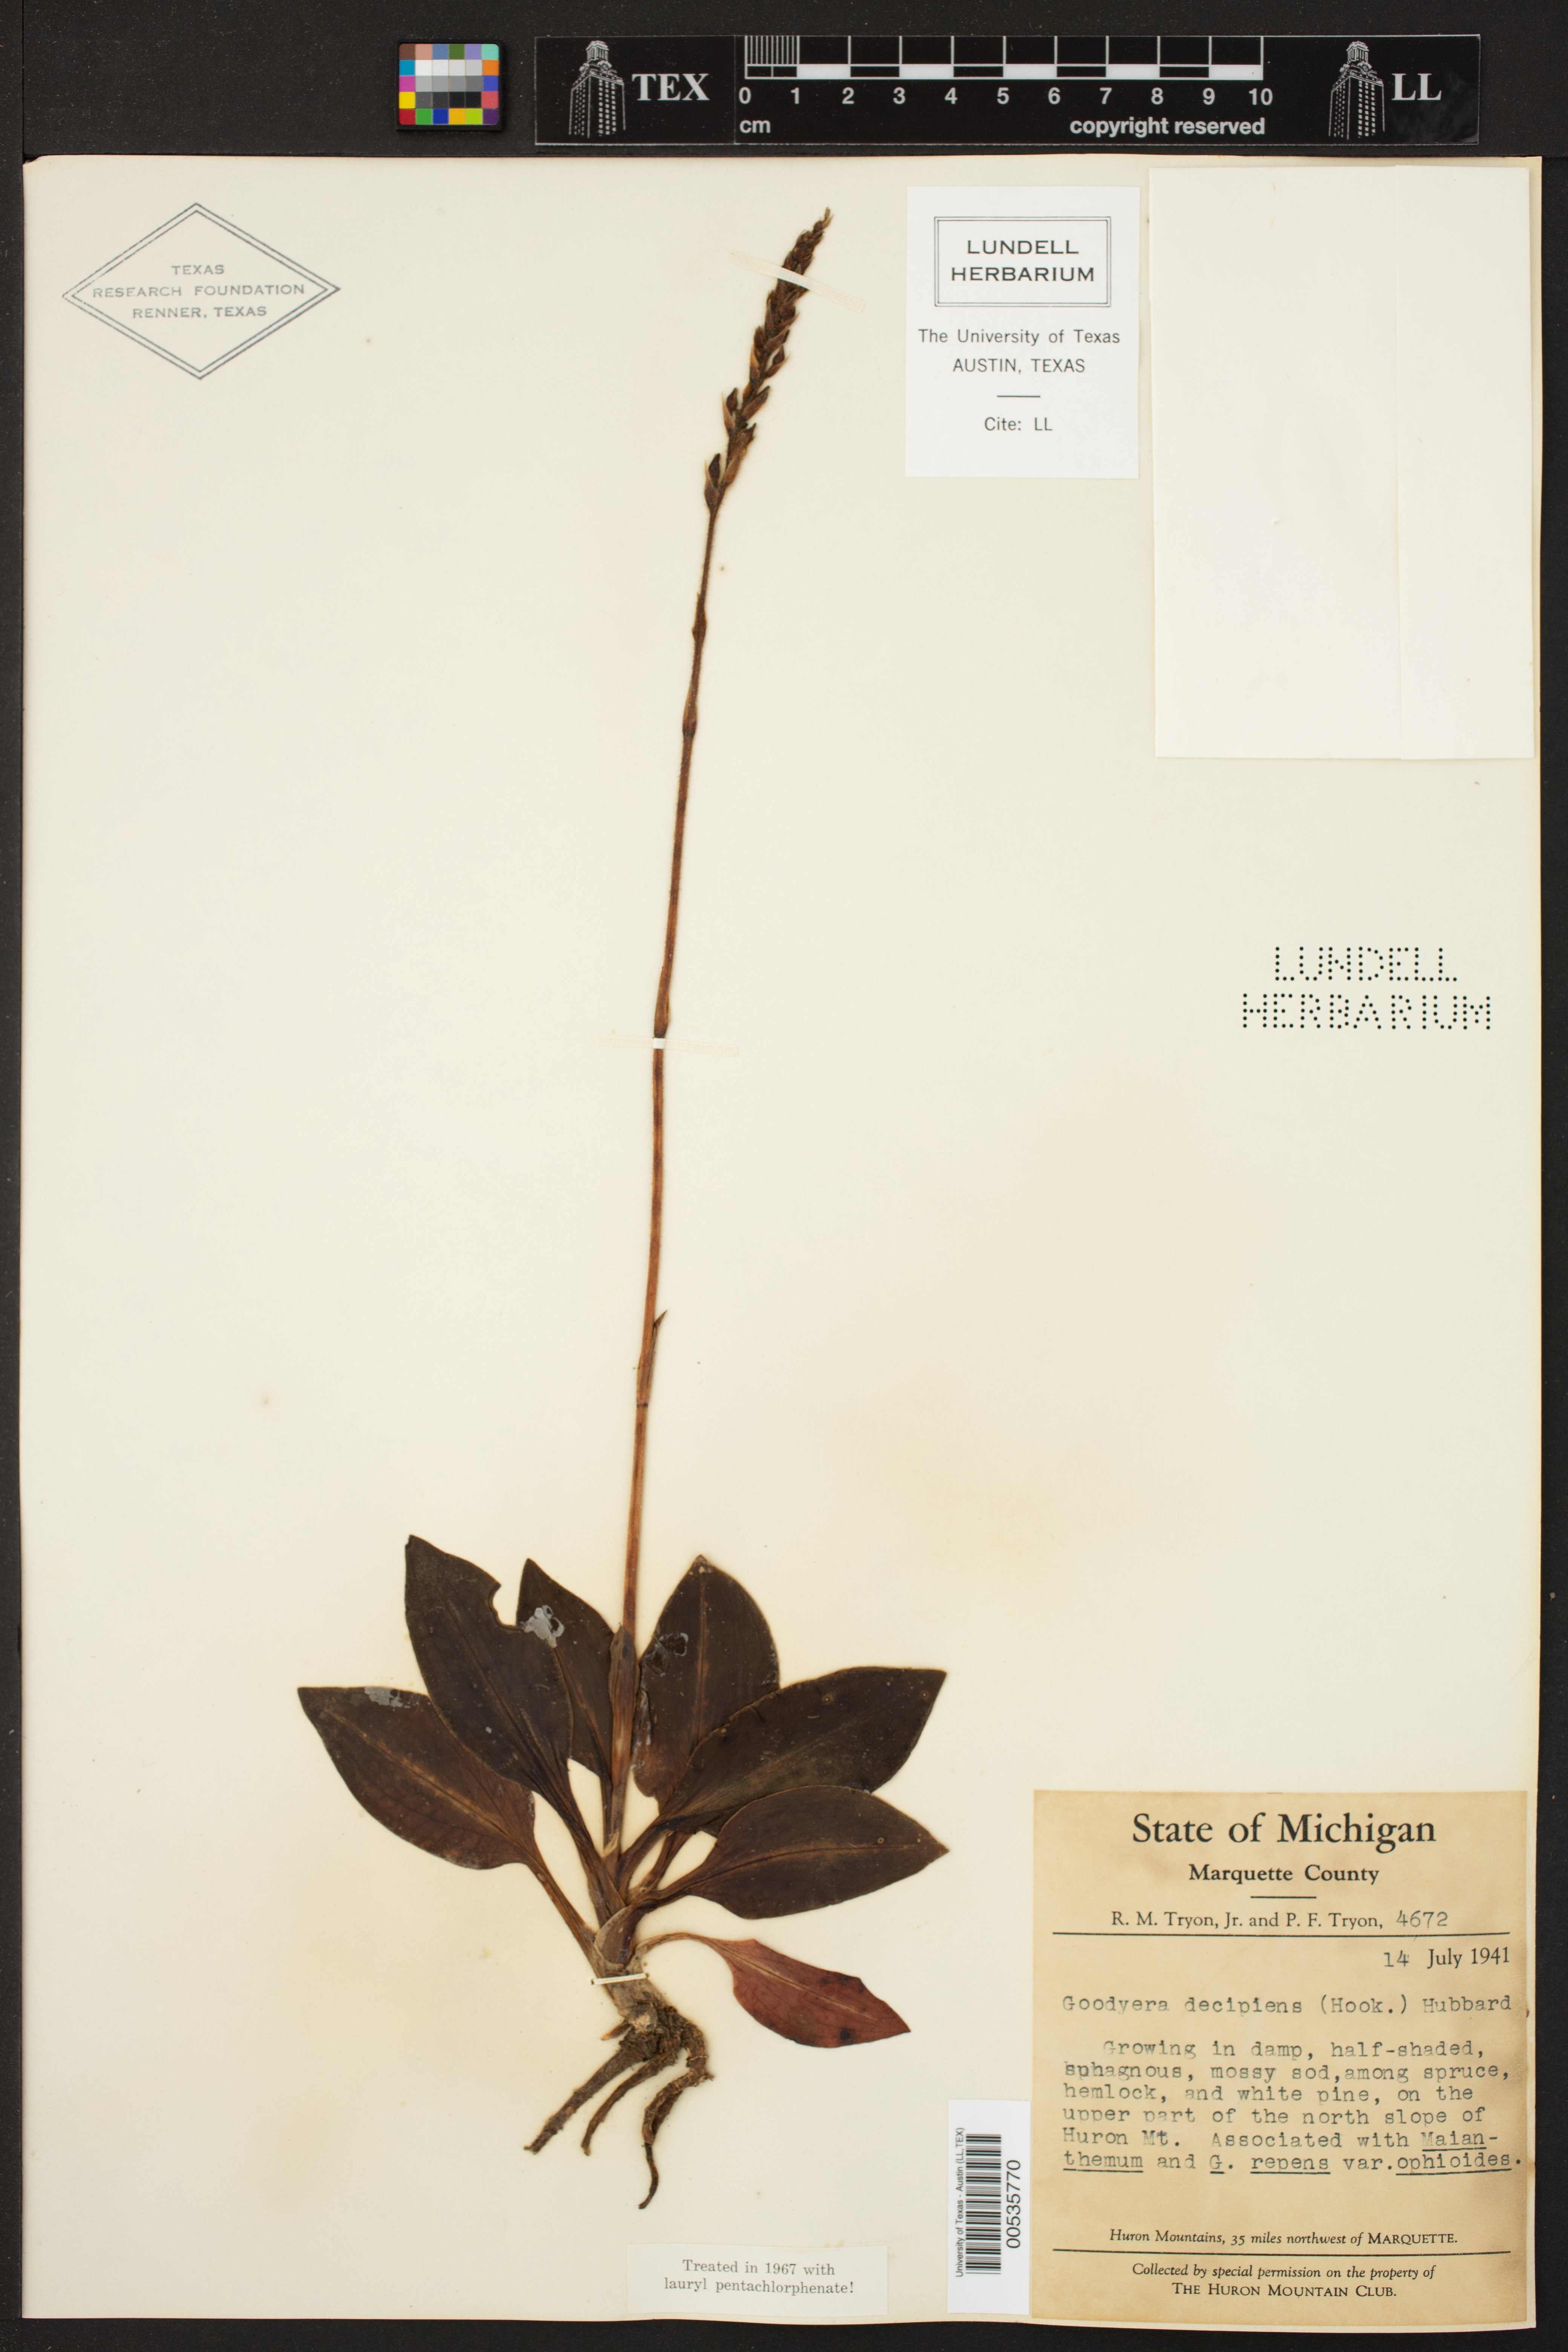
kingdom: Plantae
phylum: Tracheophyta
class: Liliopsida
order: Asparagales
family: Orchidaceae
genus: Goodyera
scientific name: Goodyera oblongifolia
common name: Giant rattlesnake-plantain
